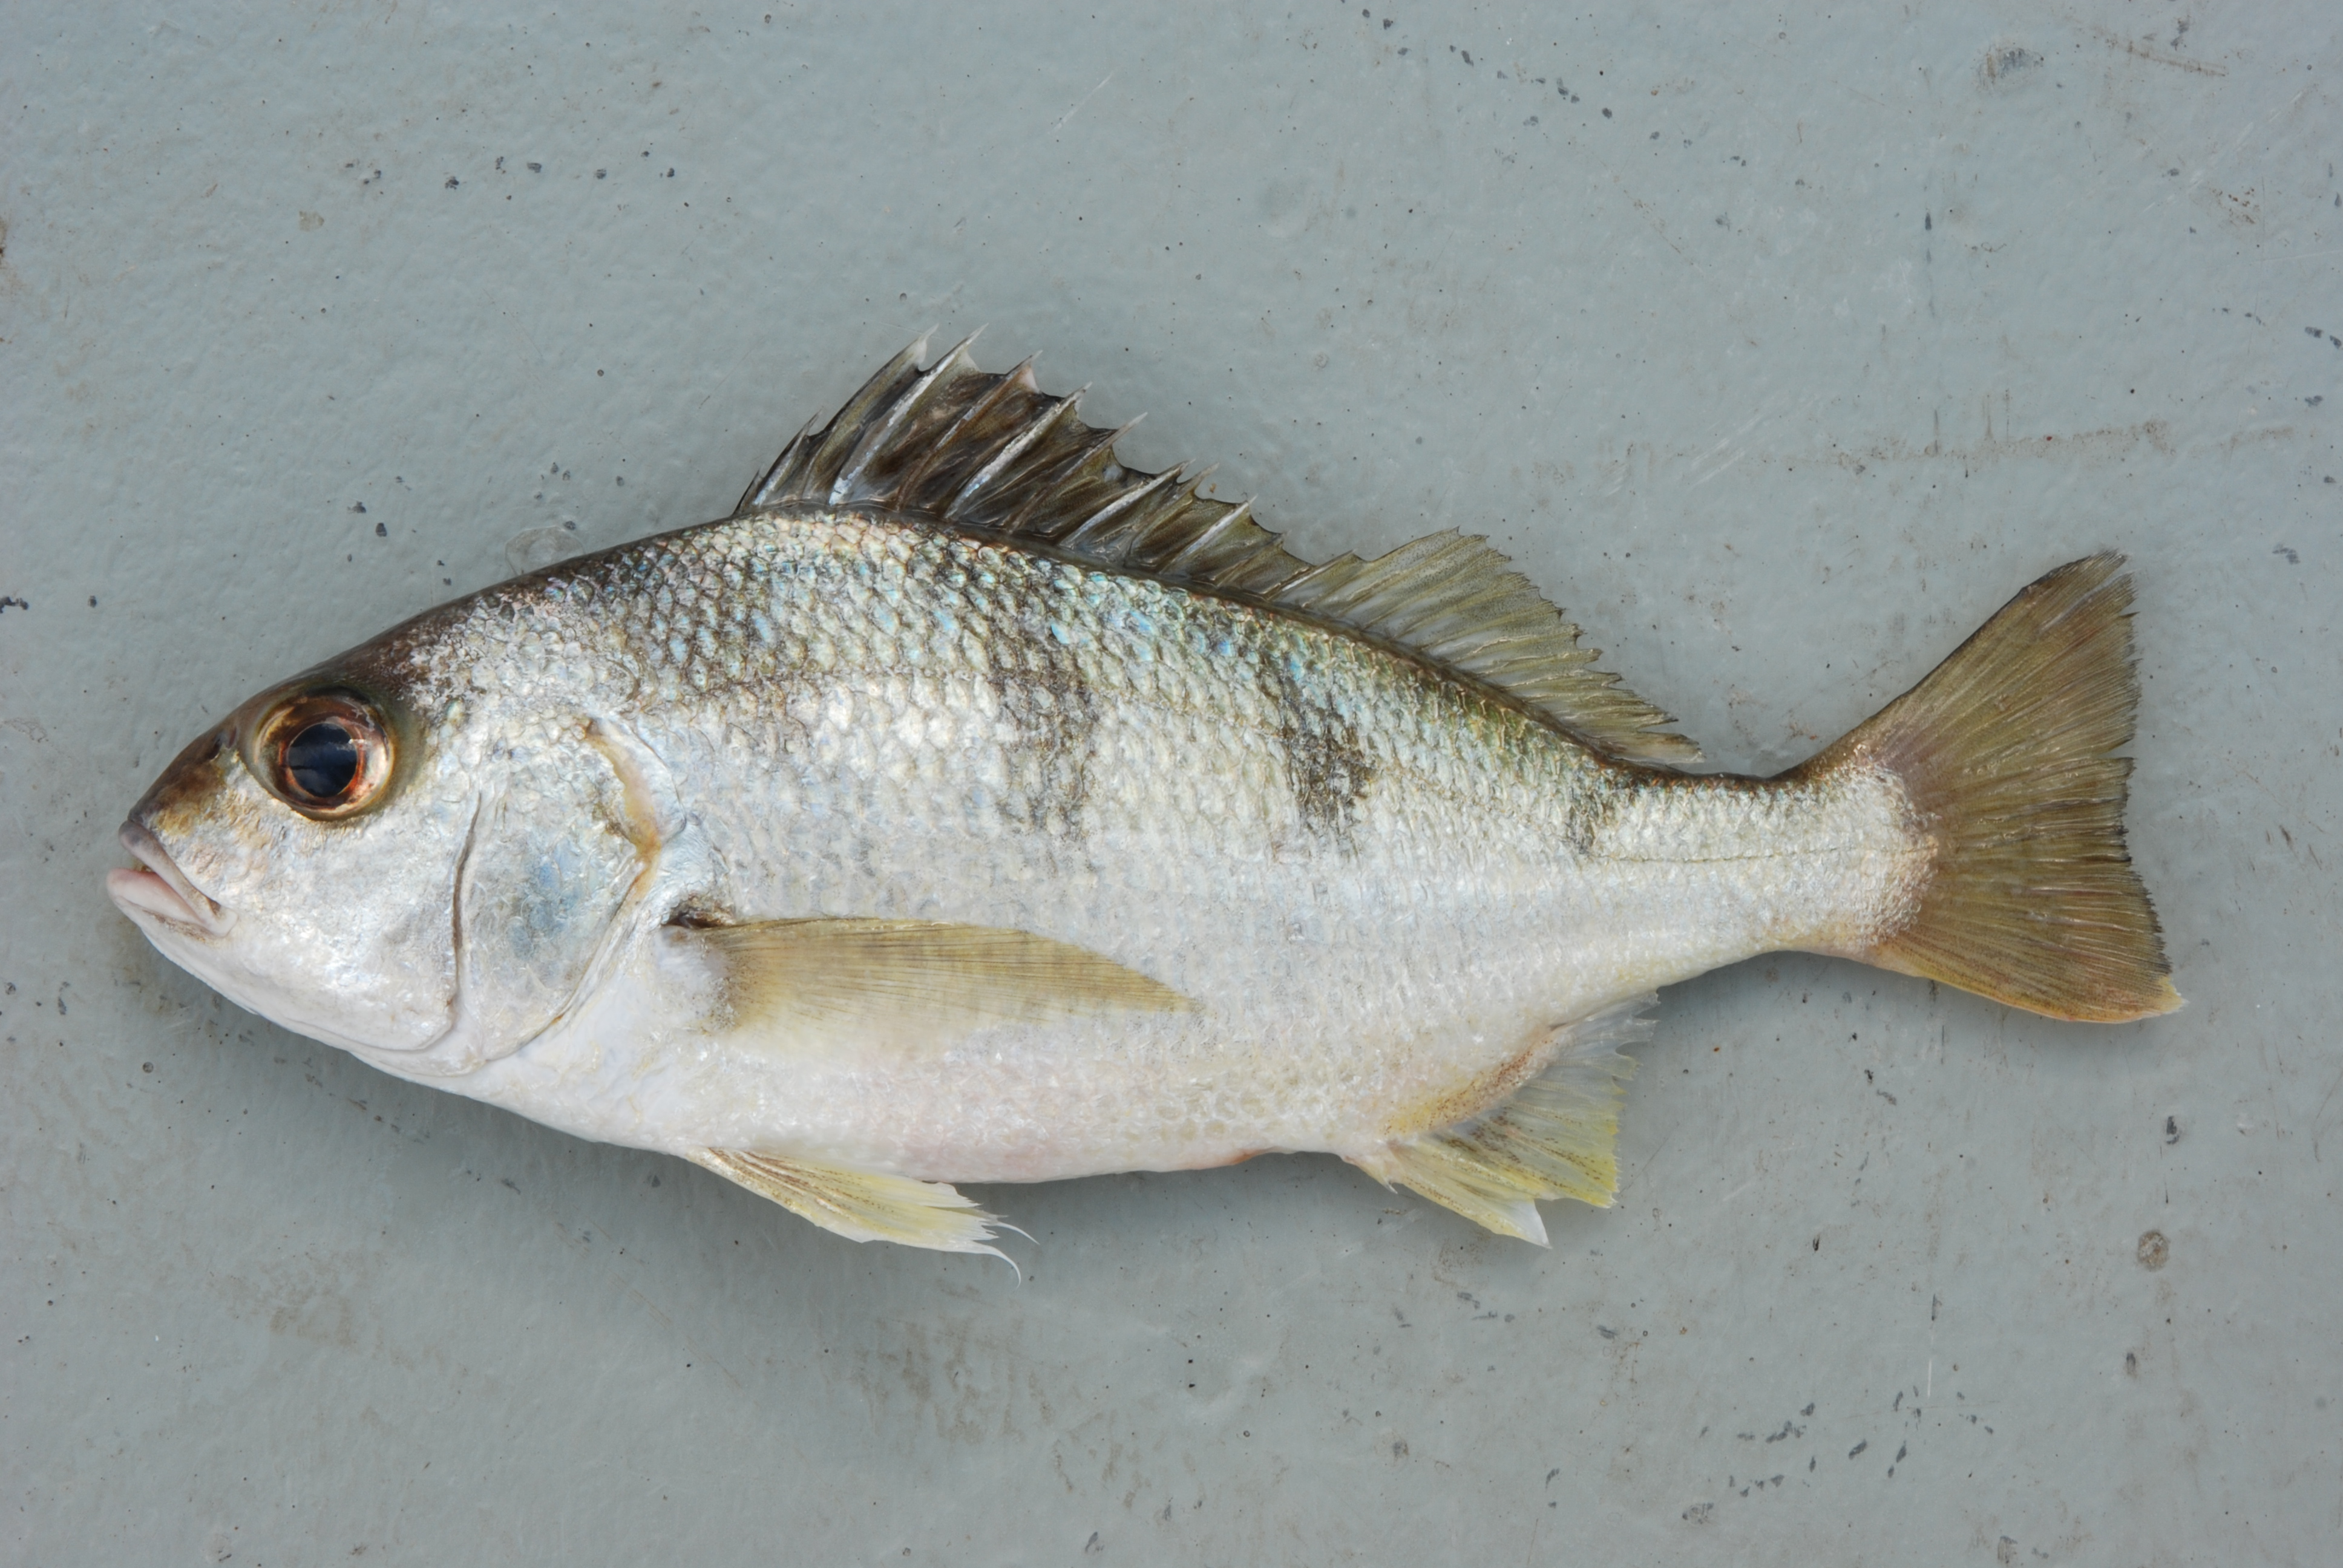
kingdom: Animalia
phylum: Chordata
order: Perciformes
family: Haemulidae
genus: Pomadasys
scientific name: Pomadasys maculatus
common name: Saddle grunt
